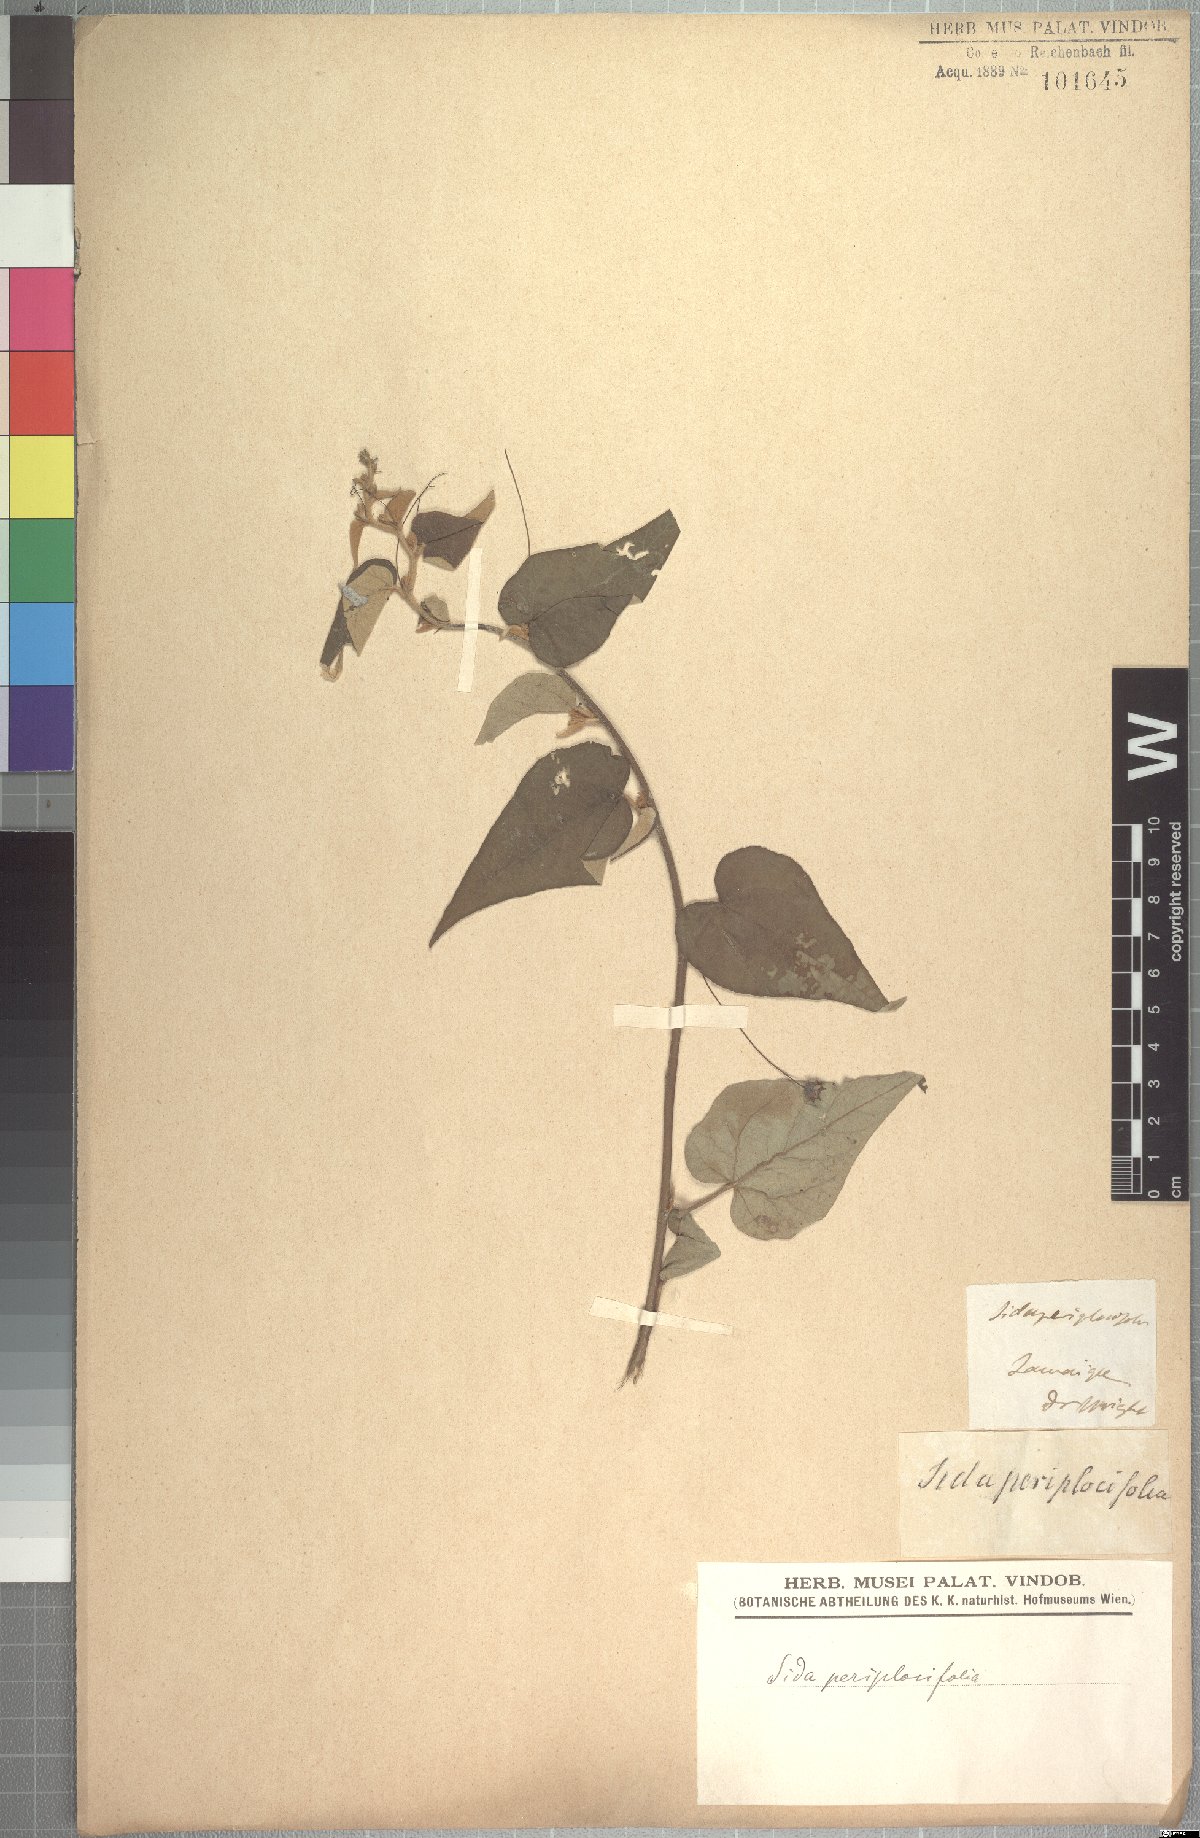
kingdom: Plantae
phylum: Tracheophyta
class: Magnoliopsida
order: Malvales
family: Malvaceae
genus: Wissadula
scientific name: Wissadula periplocifolia
